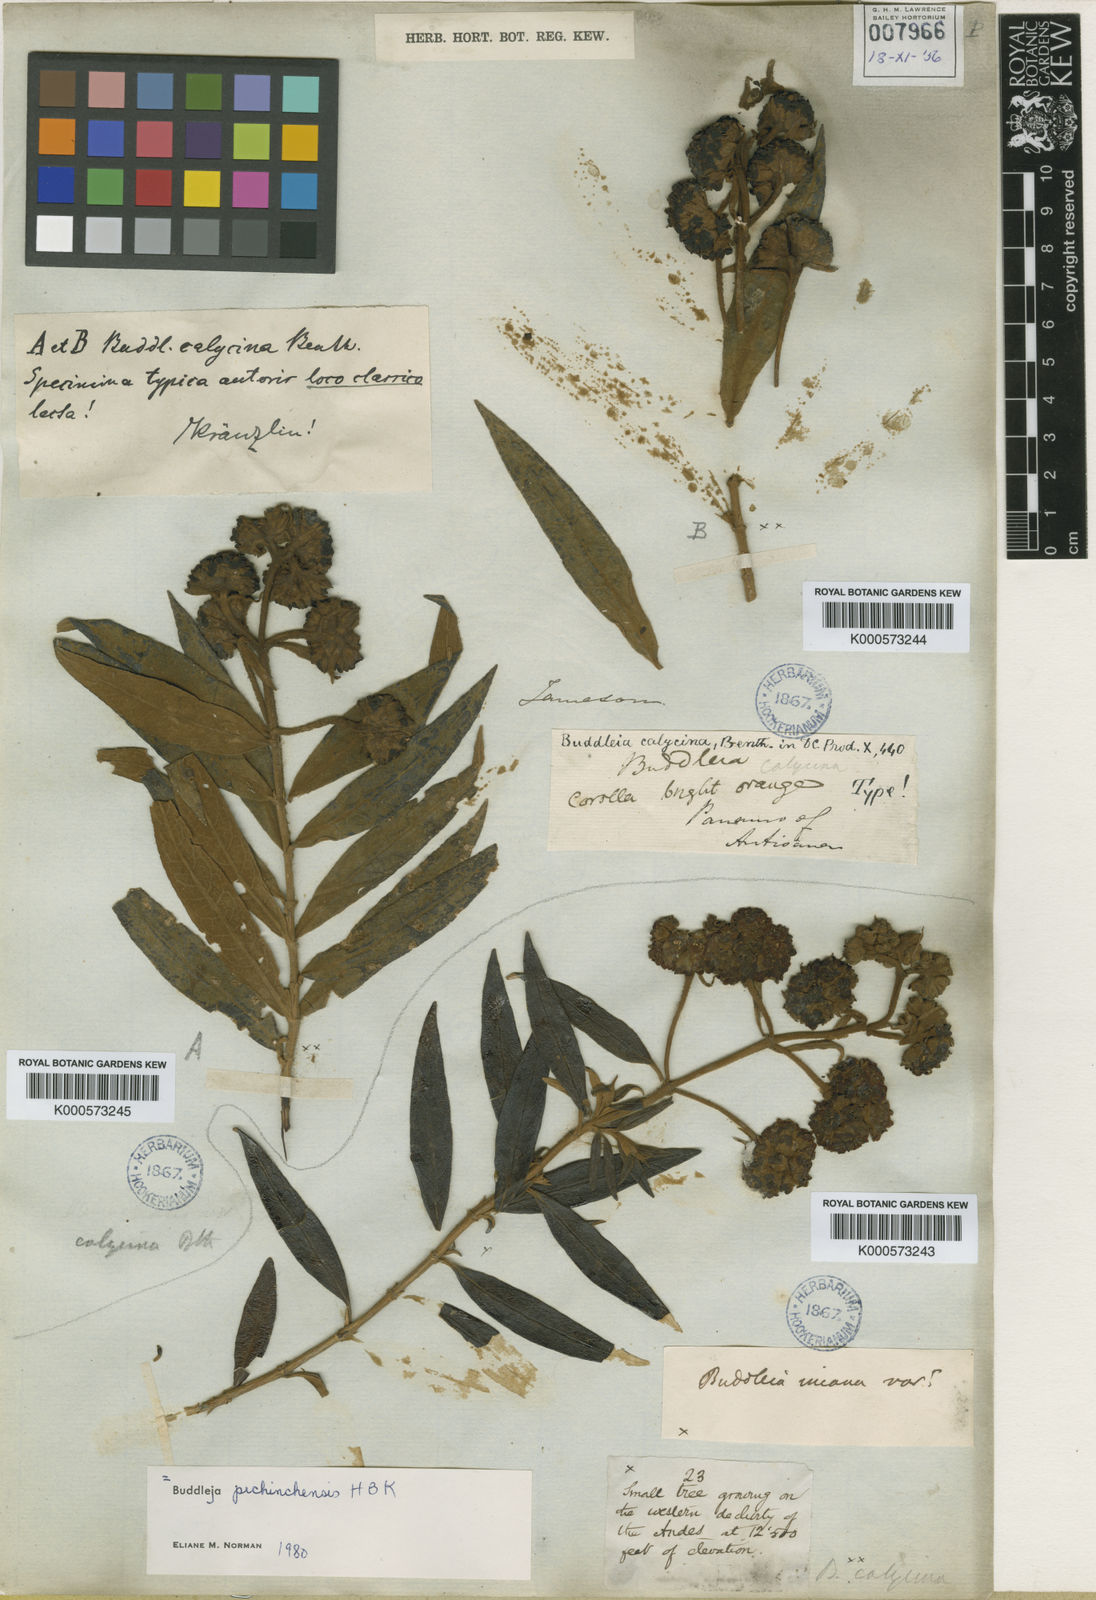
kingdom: Plantae
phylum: Tracheophyta
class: Magnoliopsida
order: Lamiales
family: Scrophulariaceae
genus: Buddleja
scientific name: Buddleja pichinchensis
